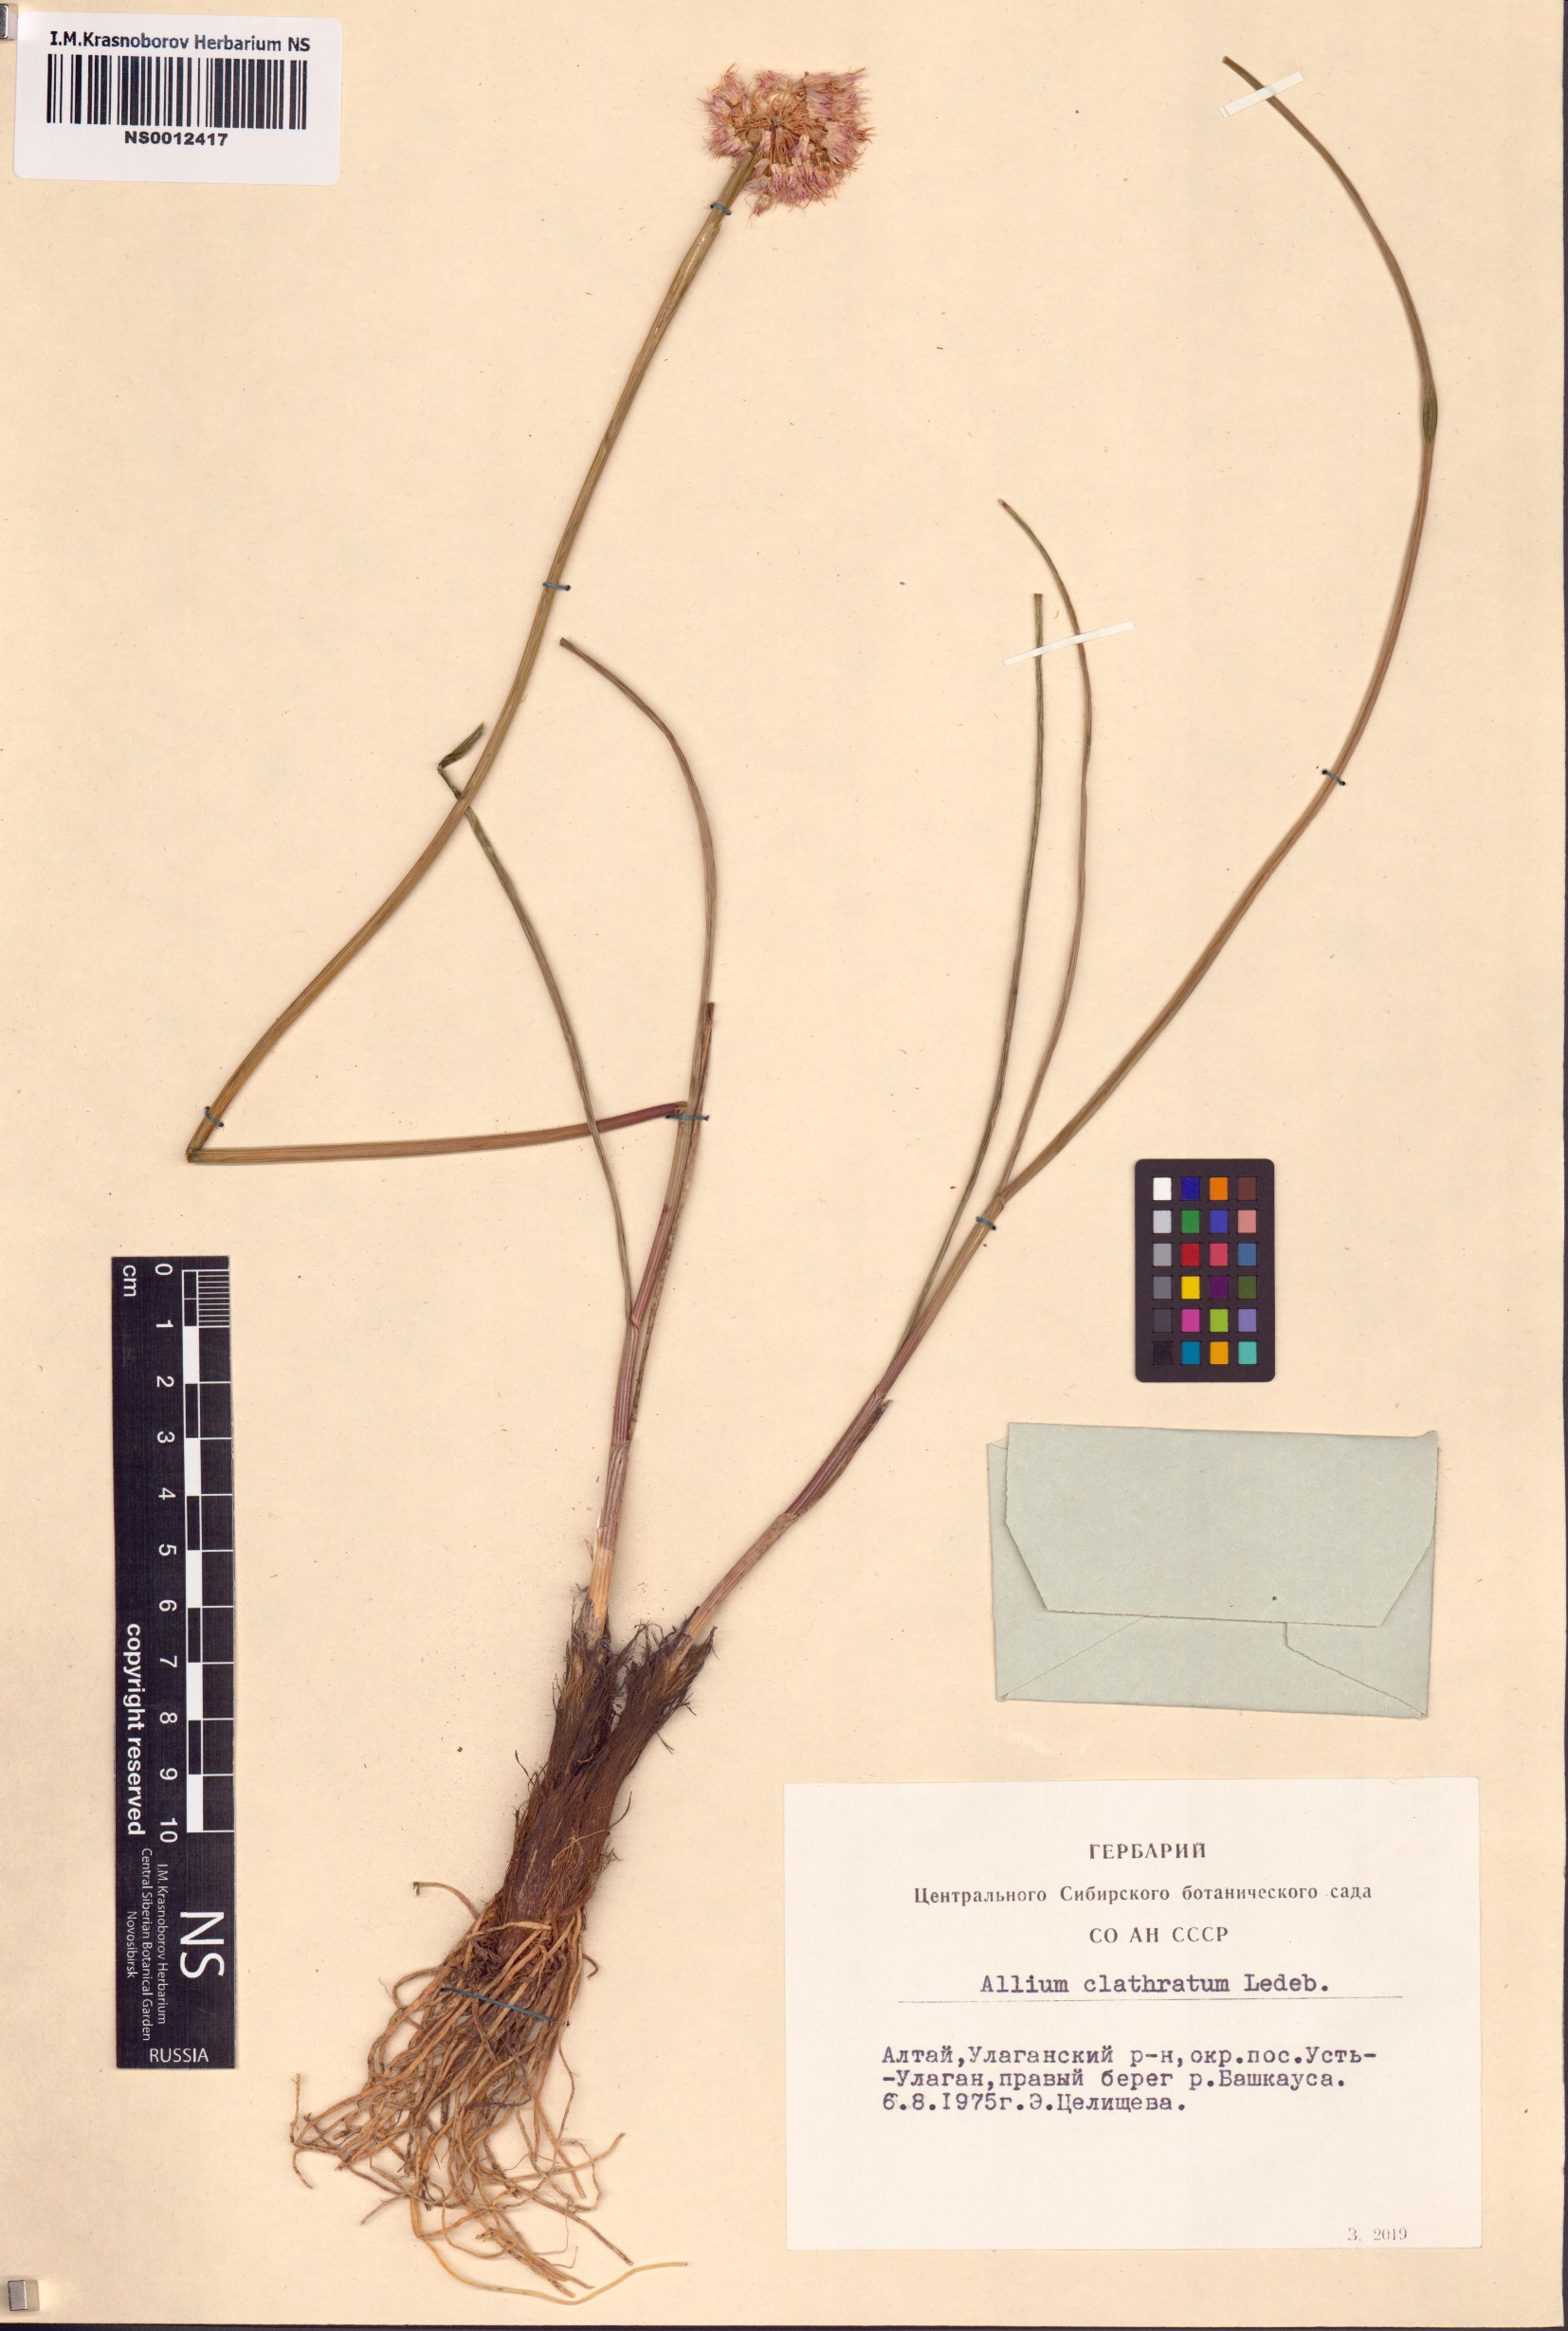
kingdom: Plantae
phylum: Tracheophyta
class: Liliopsida
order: Asparagales
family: Amaryllidaceae
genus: Allium
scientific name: Allium clathratum
